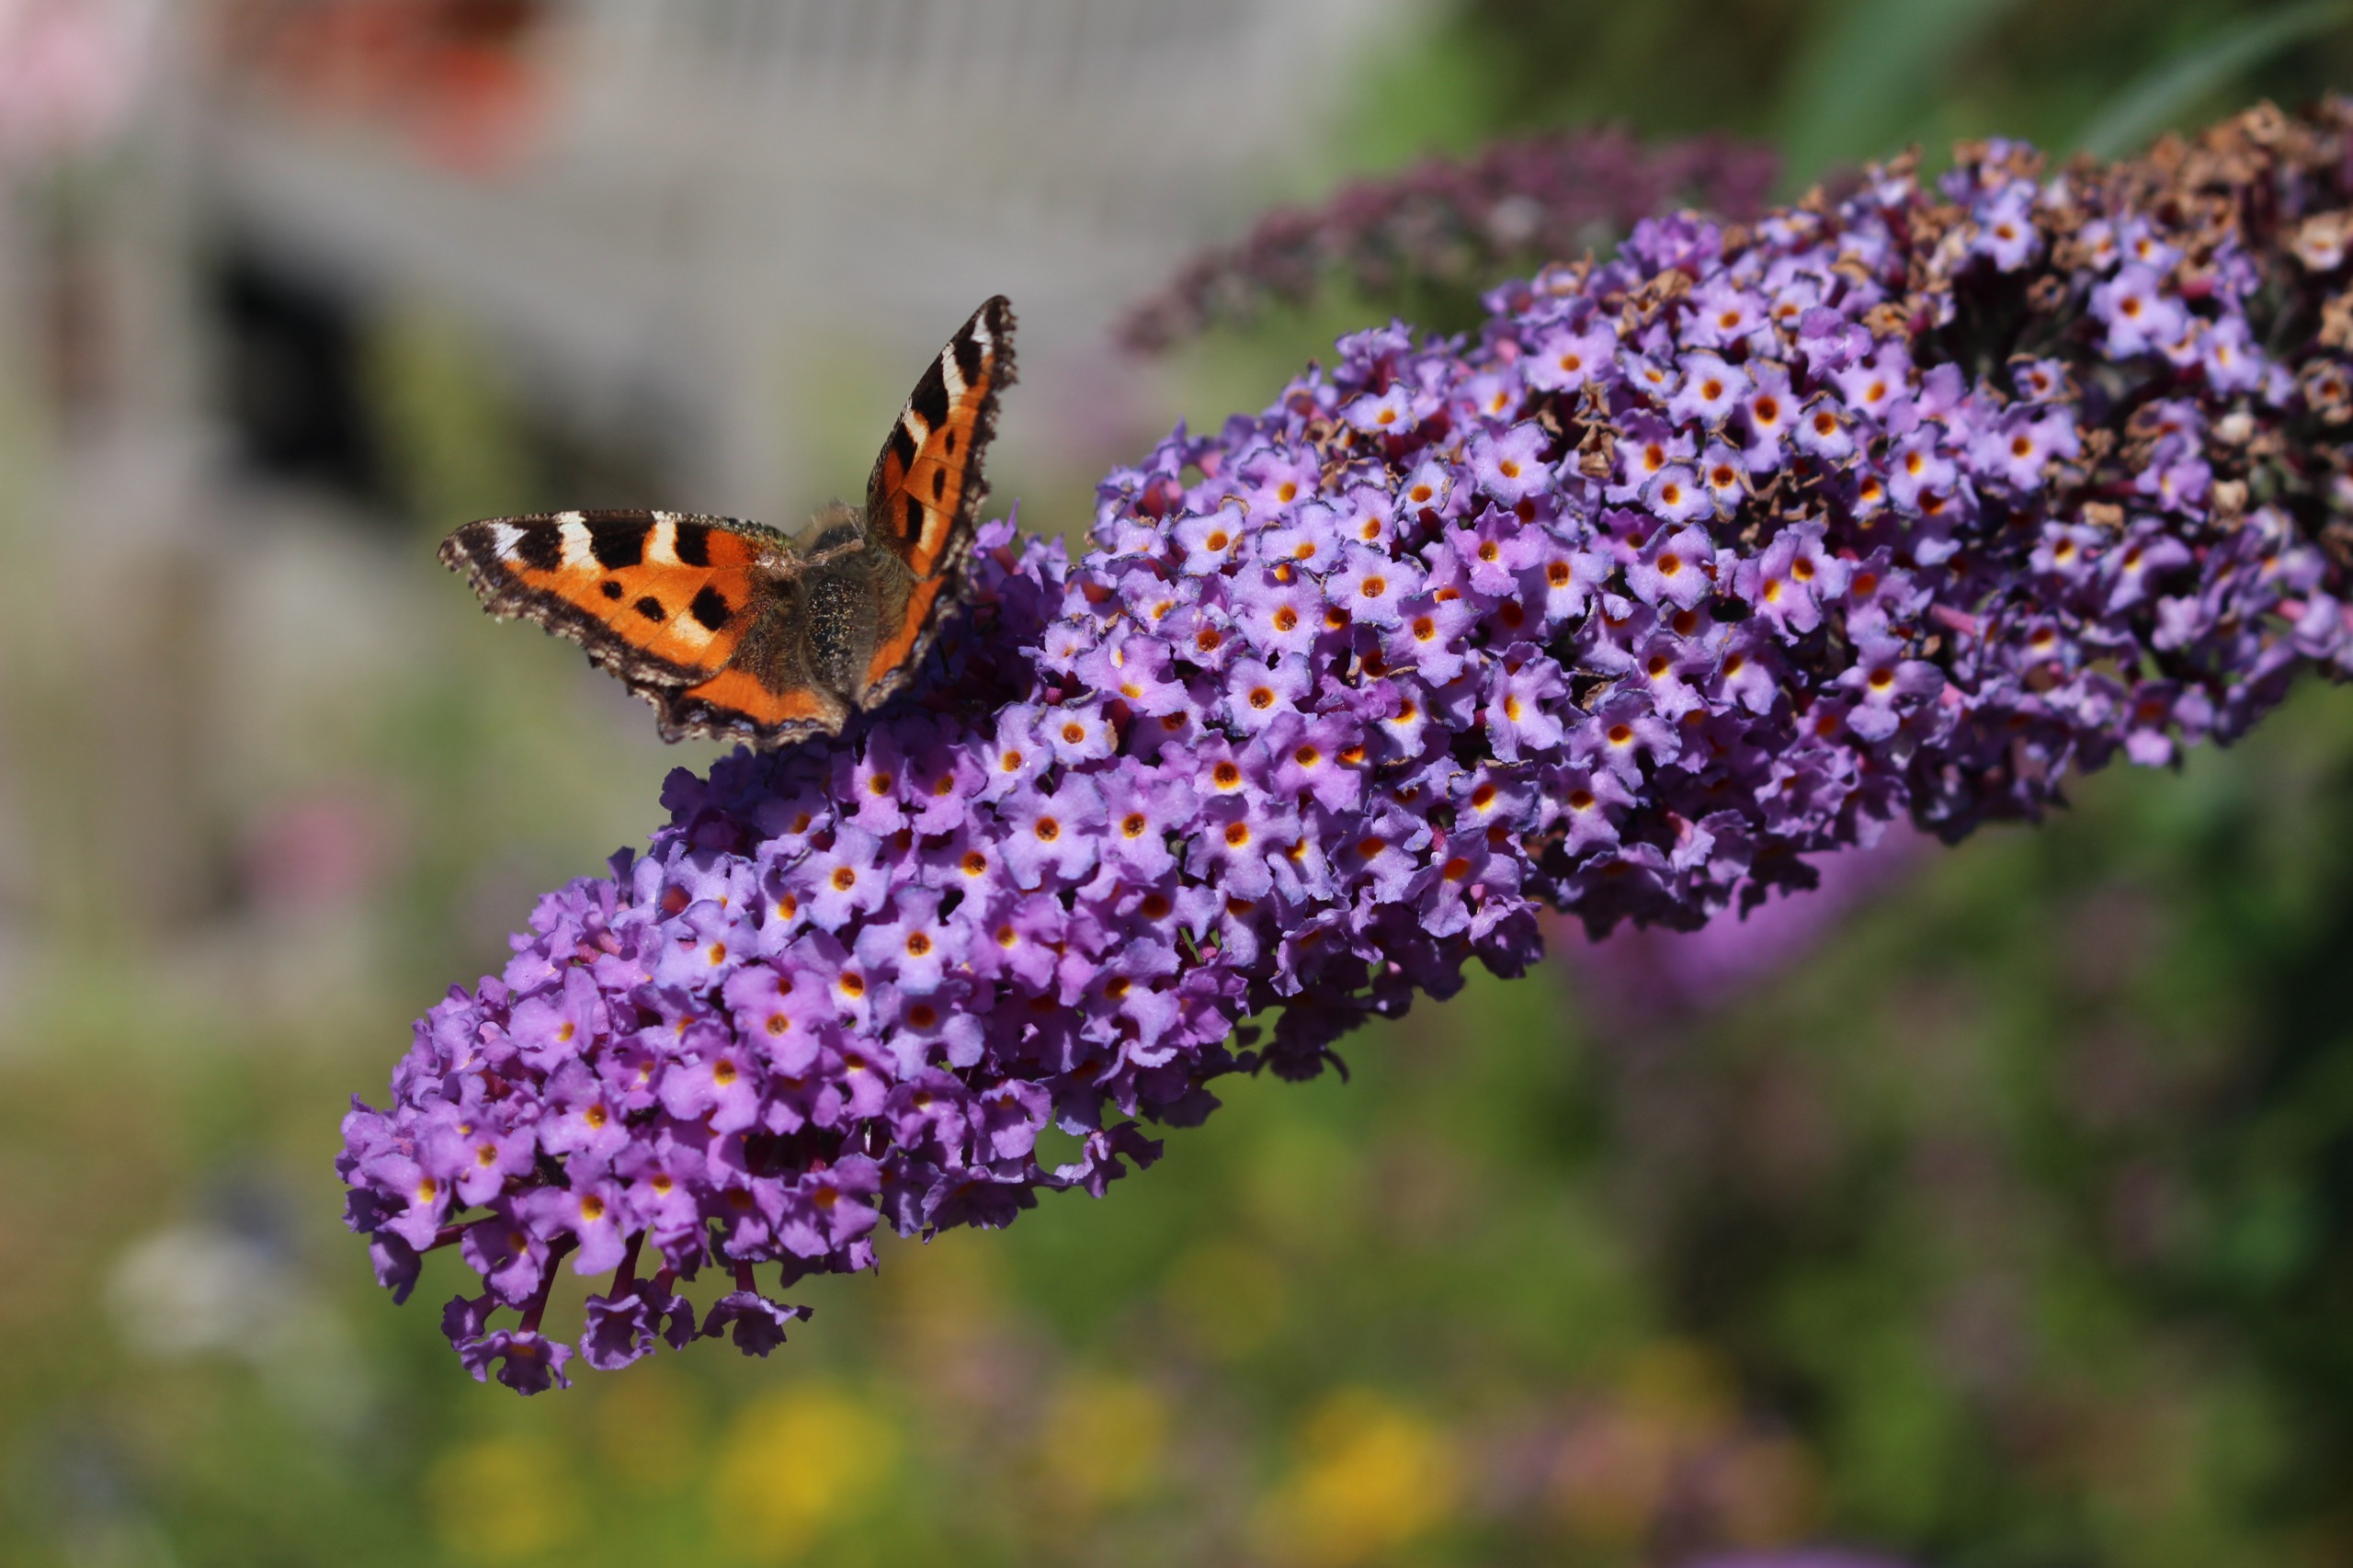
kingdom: Animalia
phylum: Arthropoda
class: Insecta
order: Lepidoptera
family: Nymphalidae
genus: Aglais
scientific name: Aglais urticae
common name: Nældens takvinge
